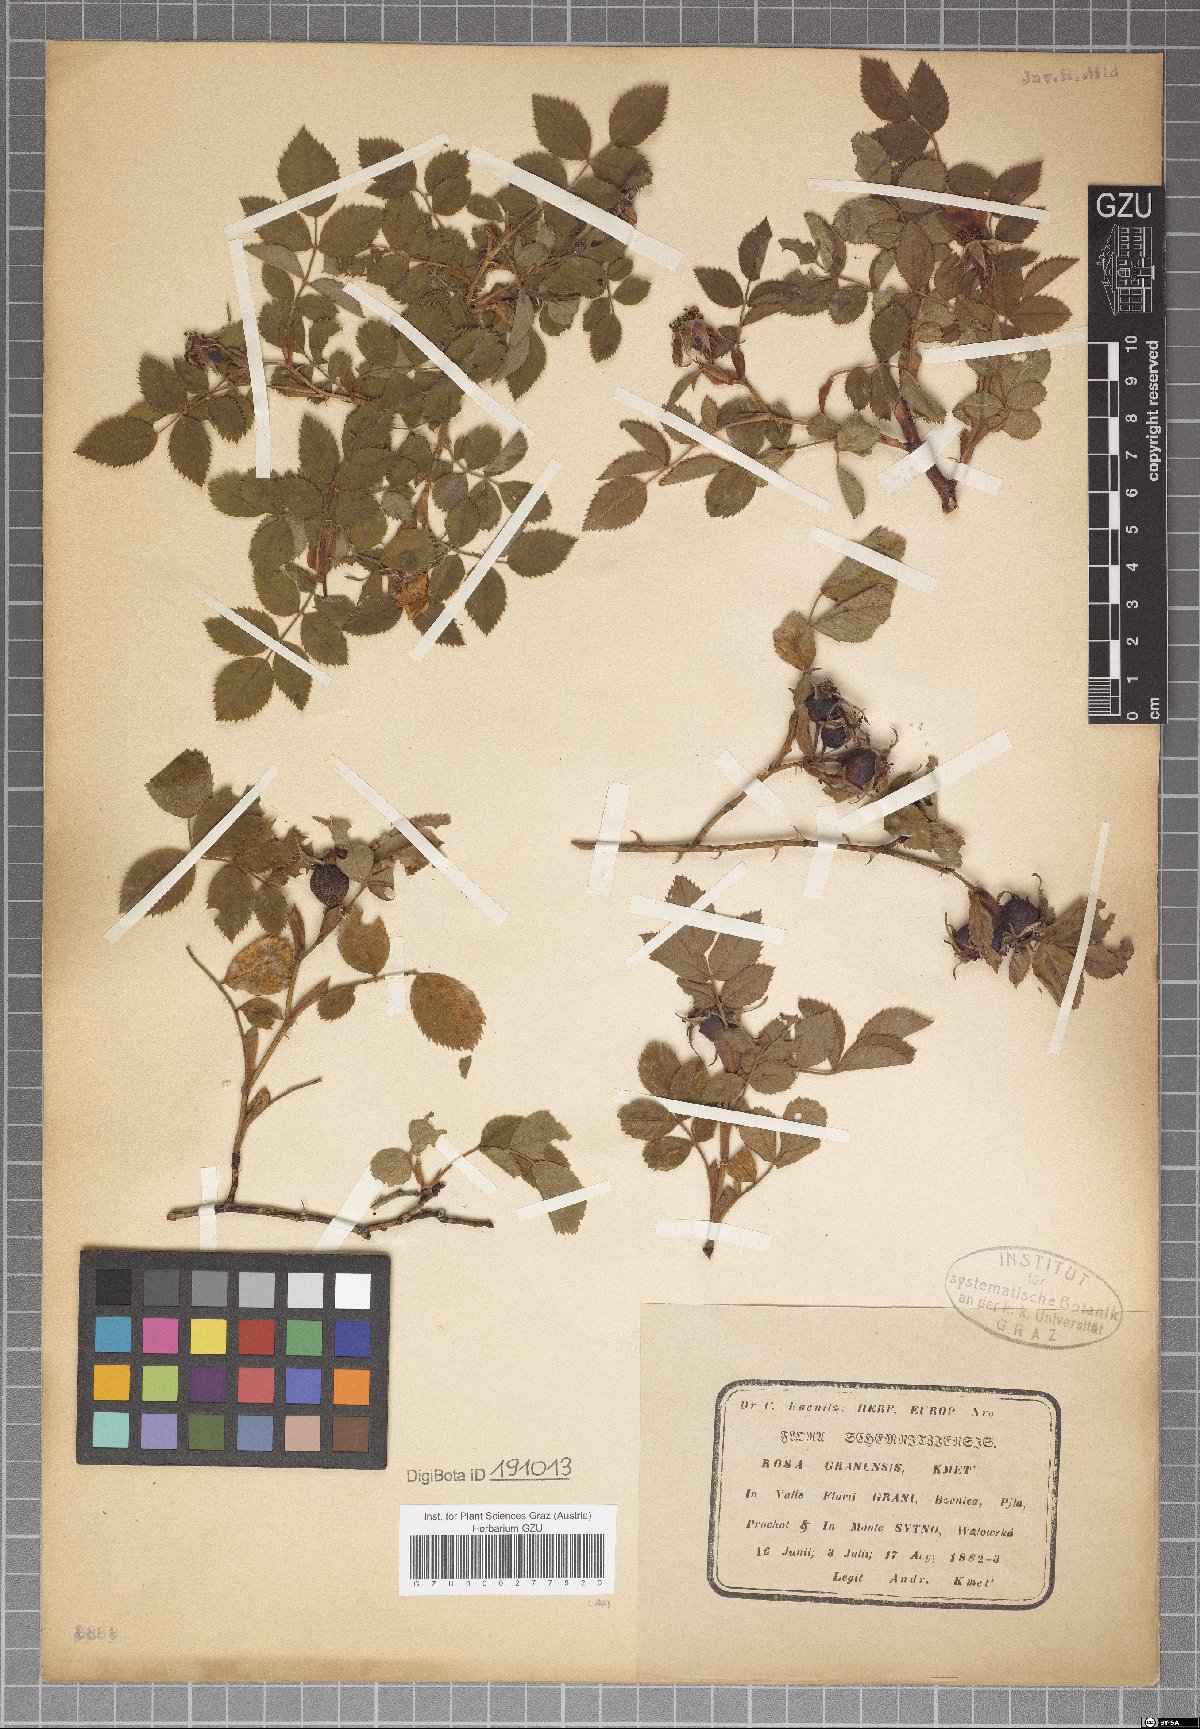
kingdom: Plantae
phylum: Tracheophyta
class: Magnoliopsida
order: Rosales
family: Rosaceae
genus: Rosa
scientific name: Rosa balsamica
